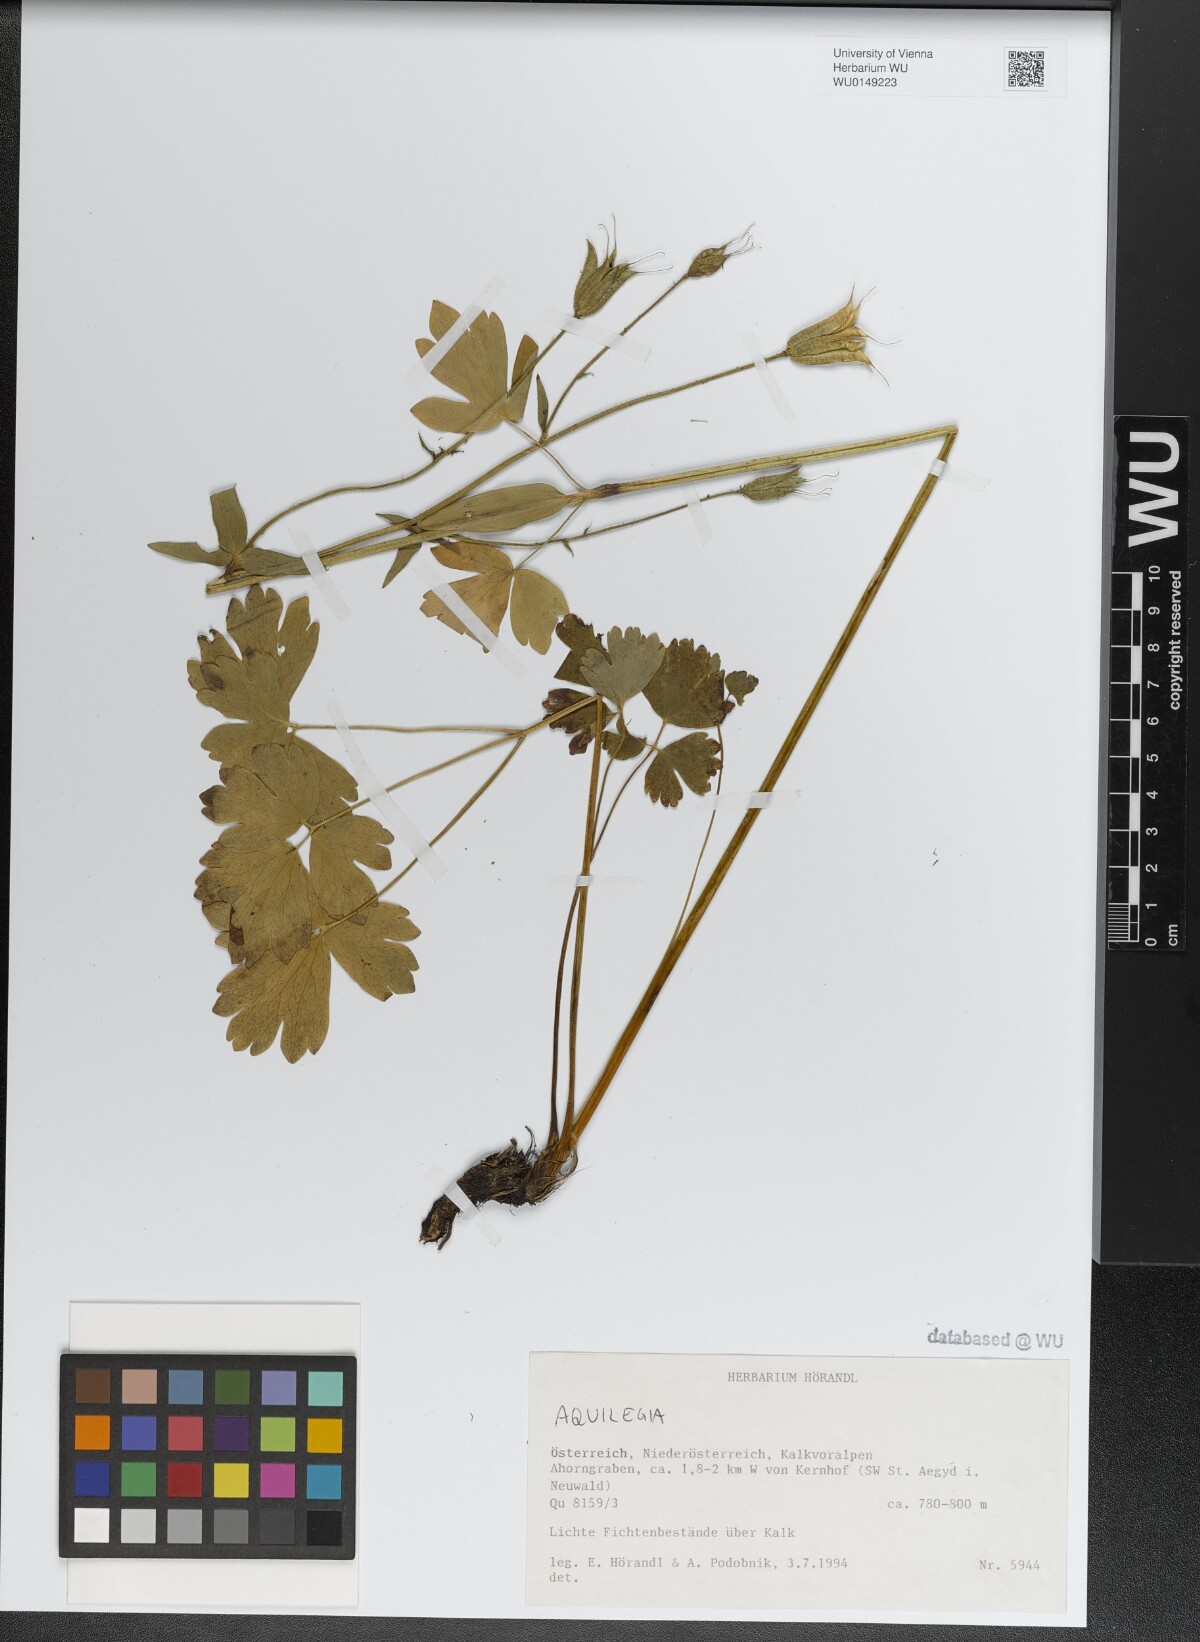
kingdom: Plantae
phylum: Tracheophyta
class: Magnoliopsida
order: Ranunculales
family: Ranunculaceae
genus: Aquilegia
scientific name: Aquilegia
